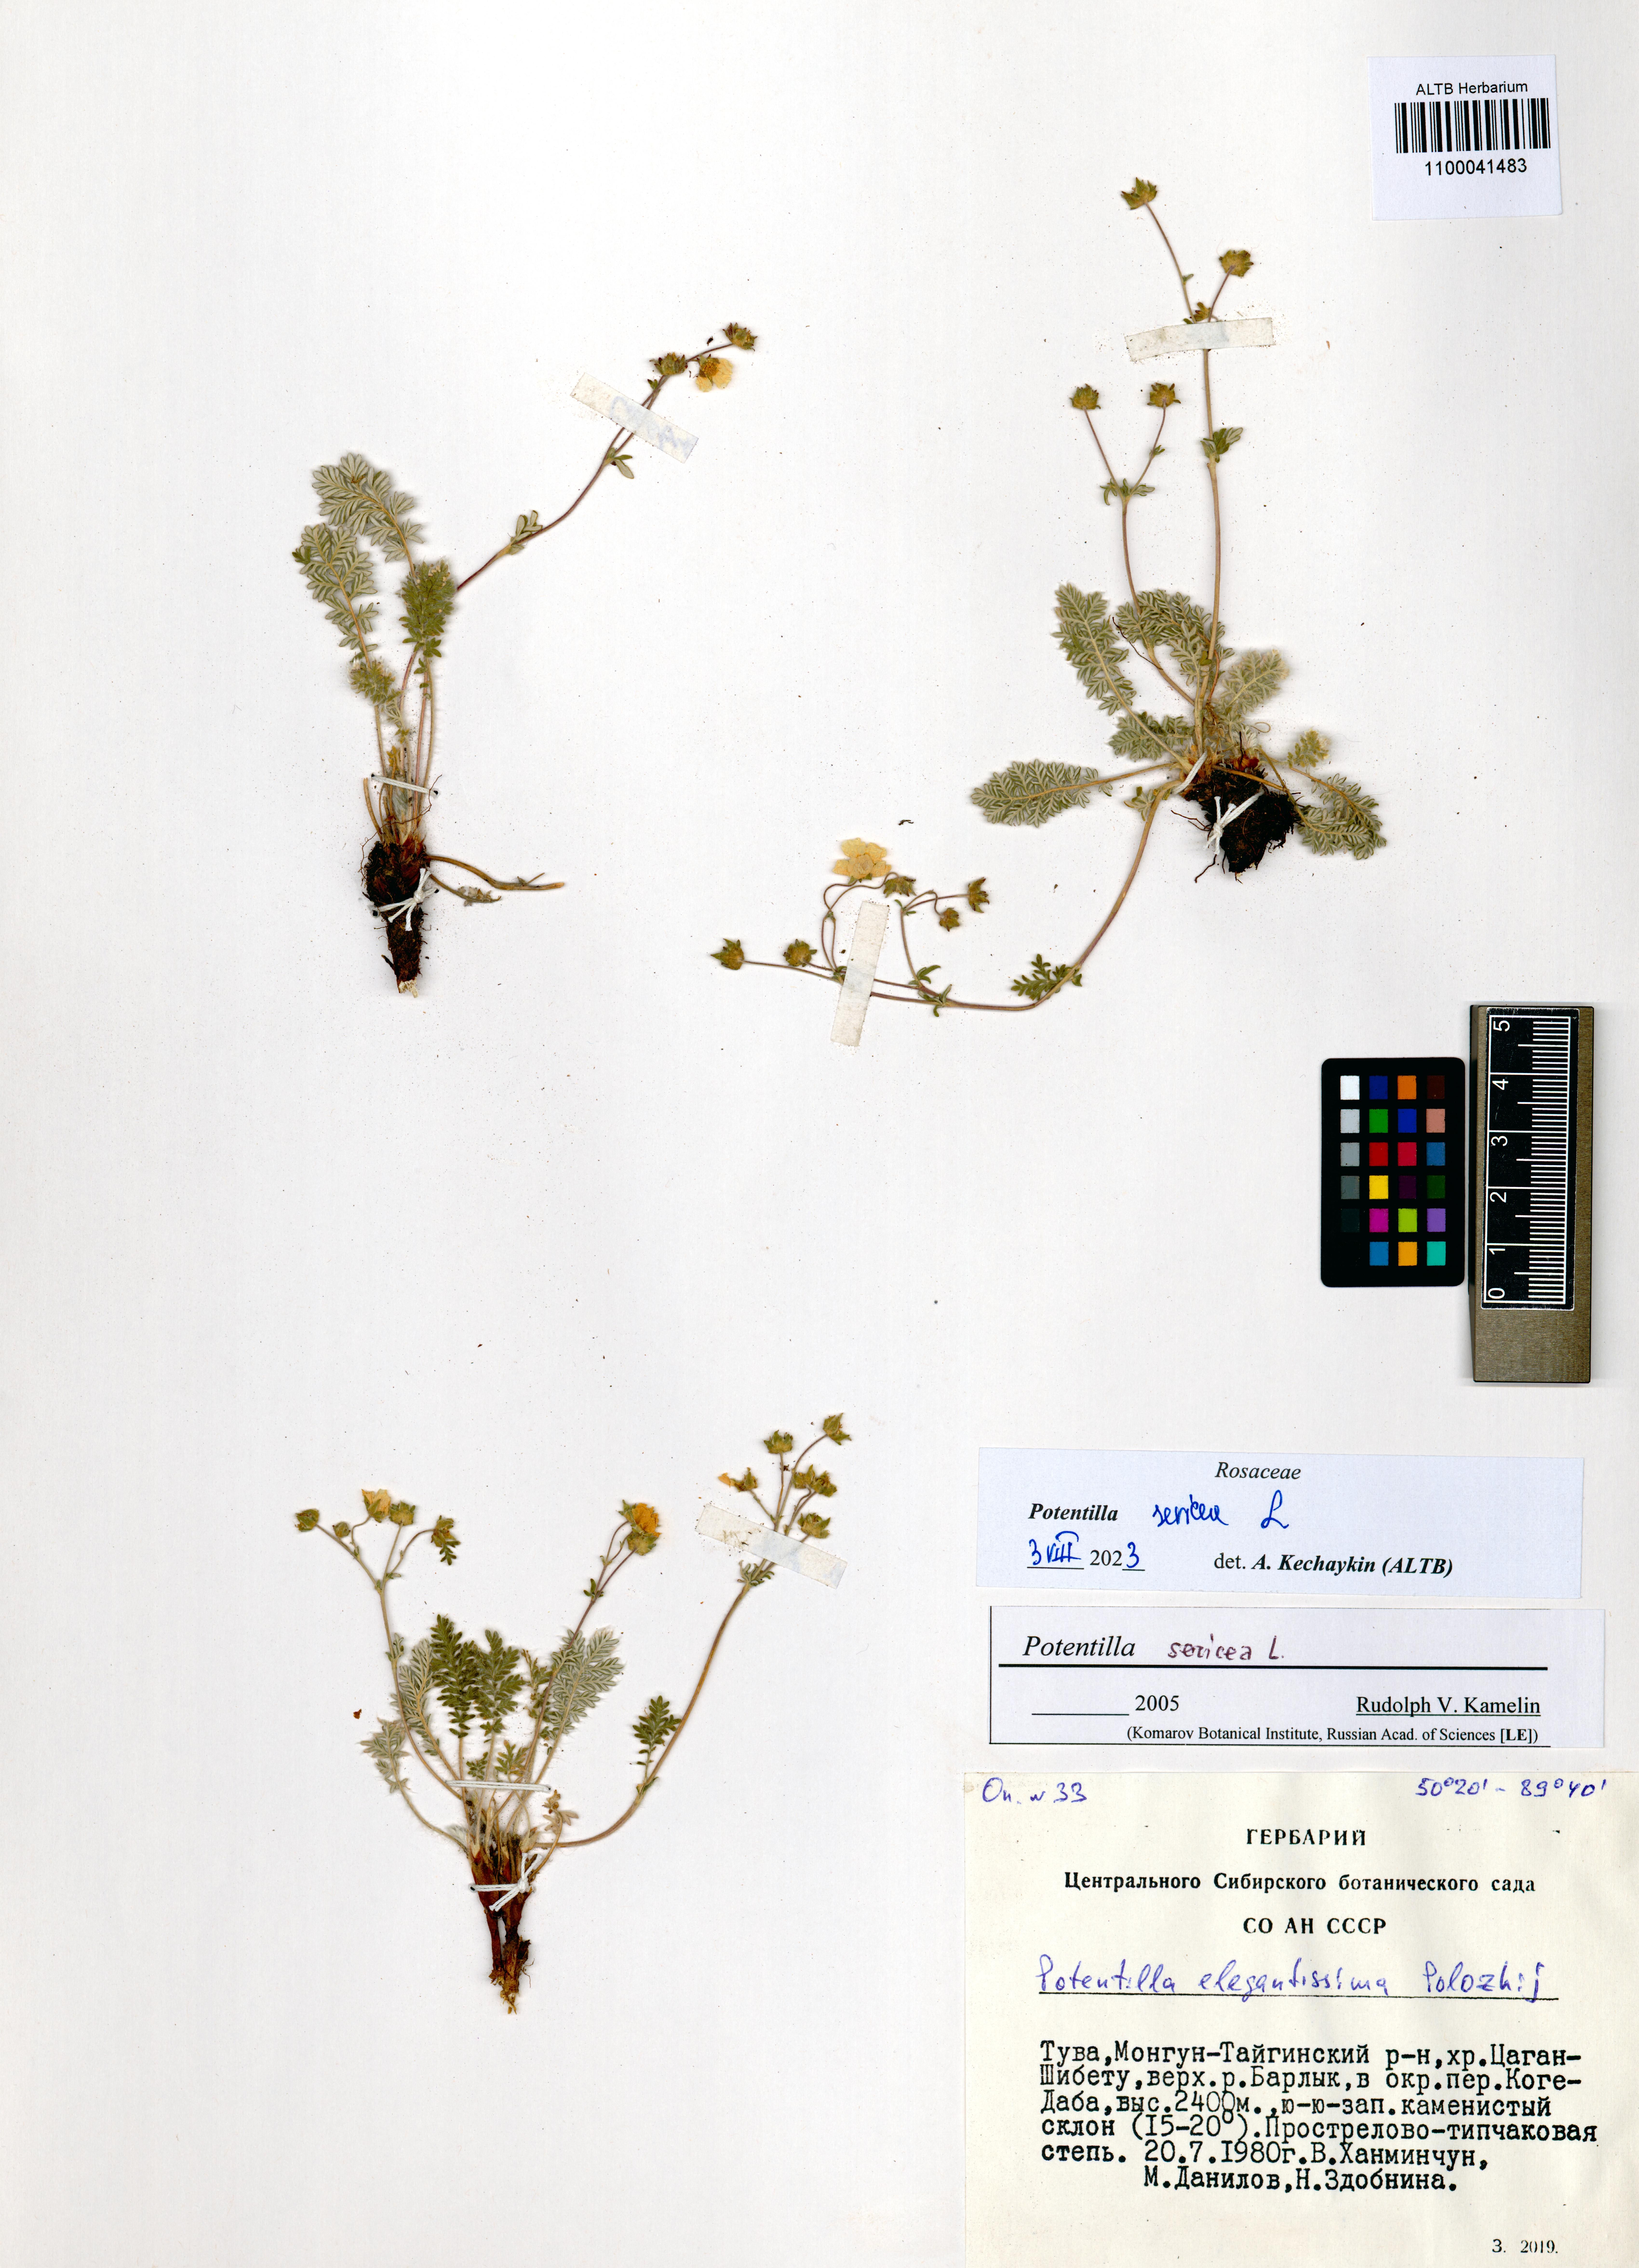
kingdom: Plantae
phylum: Tracheophyta
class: Magnoliopsida
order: Rosales
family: Rosaceae
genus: Potentilla
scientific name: Potentilla sericea
